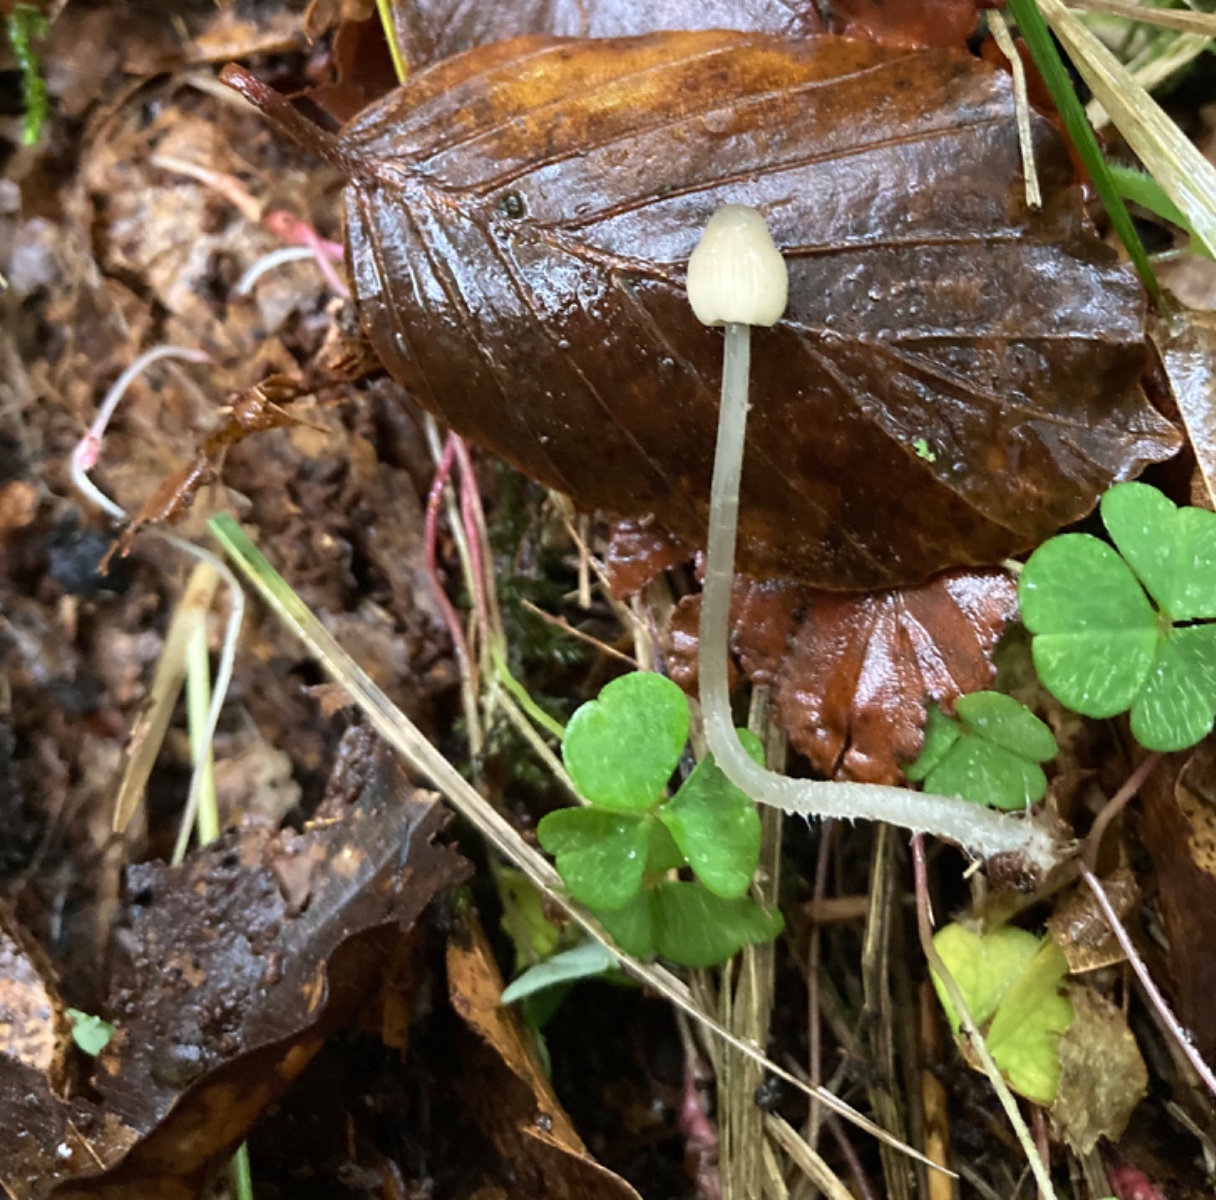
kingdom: Fungi
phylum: Basidiomycota
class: Agaricomycetes
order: Agaricales
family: Mycenaceae
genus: Mycena
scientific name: Mycena arcangeliana
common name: oliven-huesvamp
